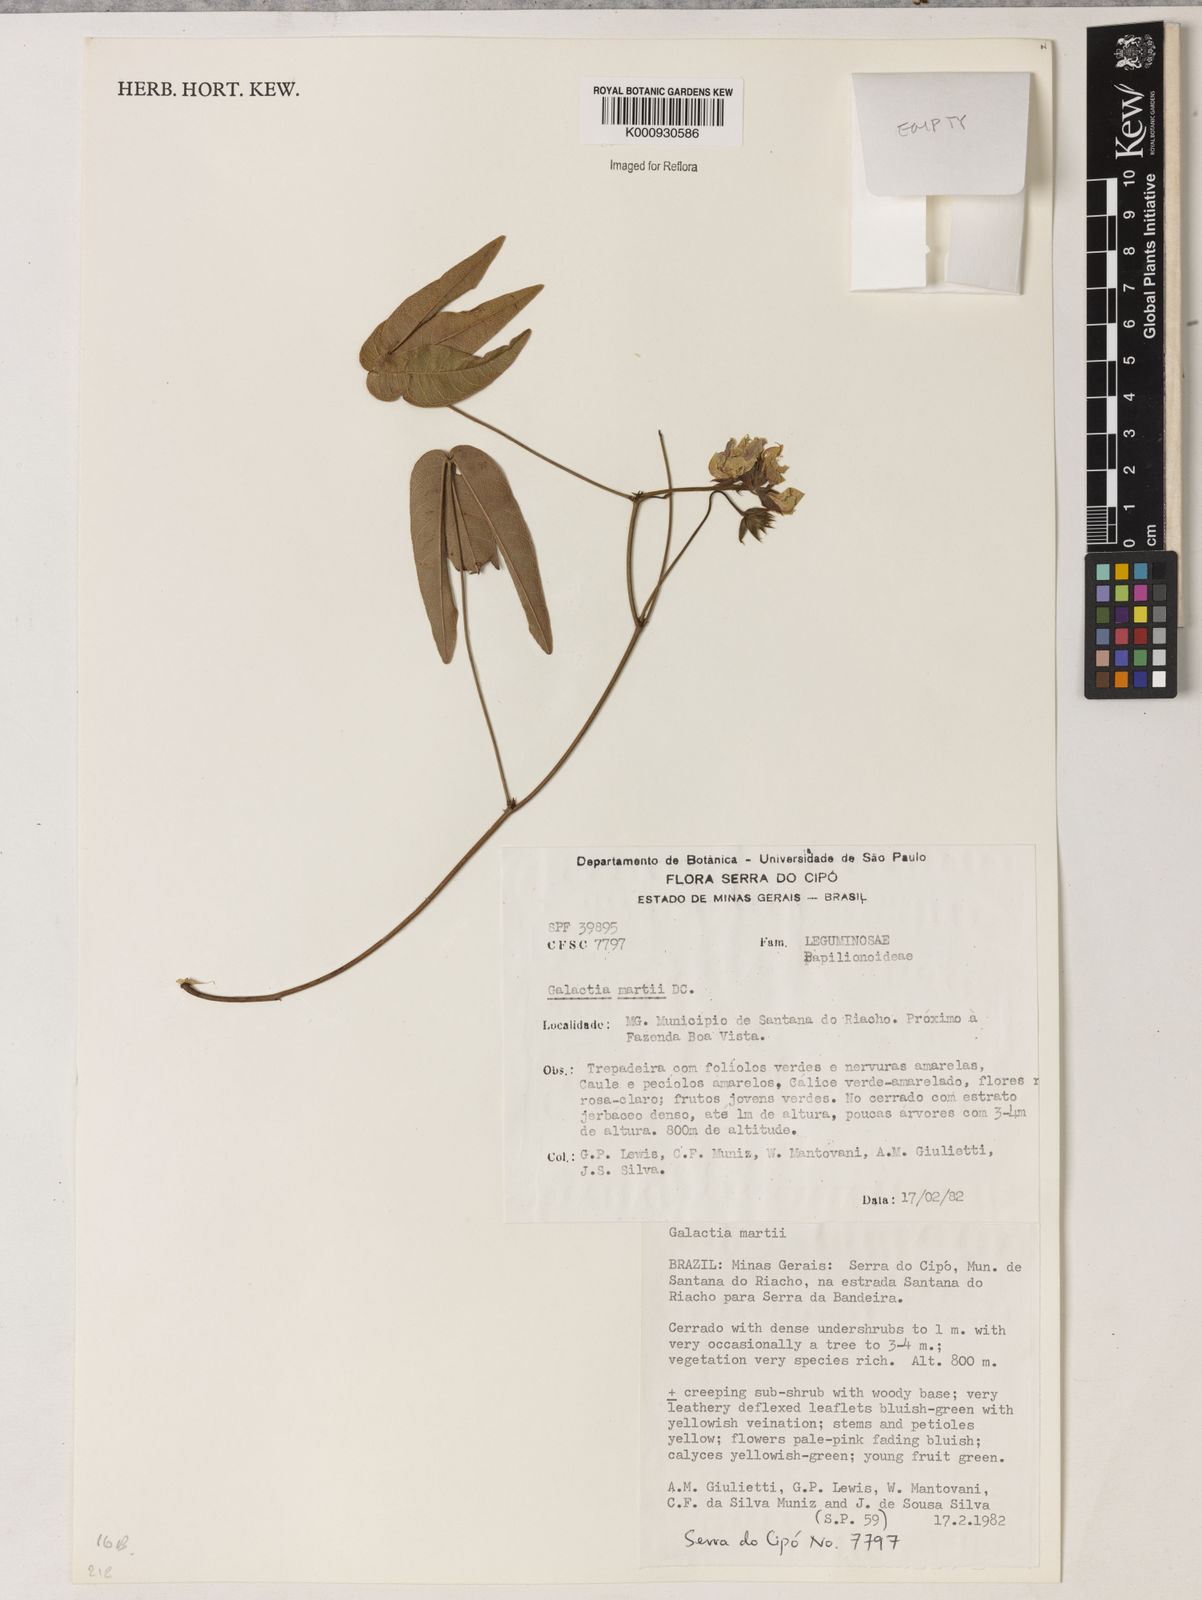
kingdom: Plantae
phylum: Tracheophyta
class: Magnoliopsida
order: Fabales
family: Fabaceae
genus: Betencourtia
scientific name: Betencourtia neesii
